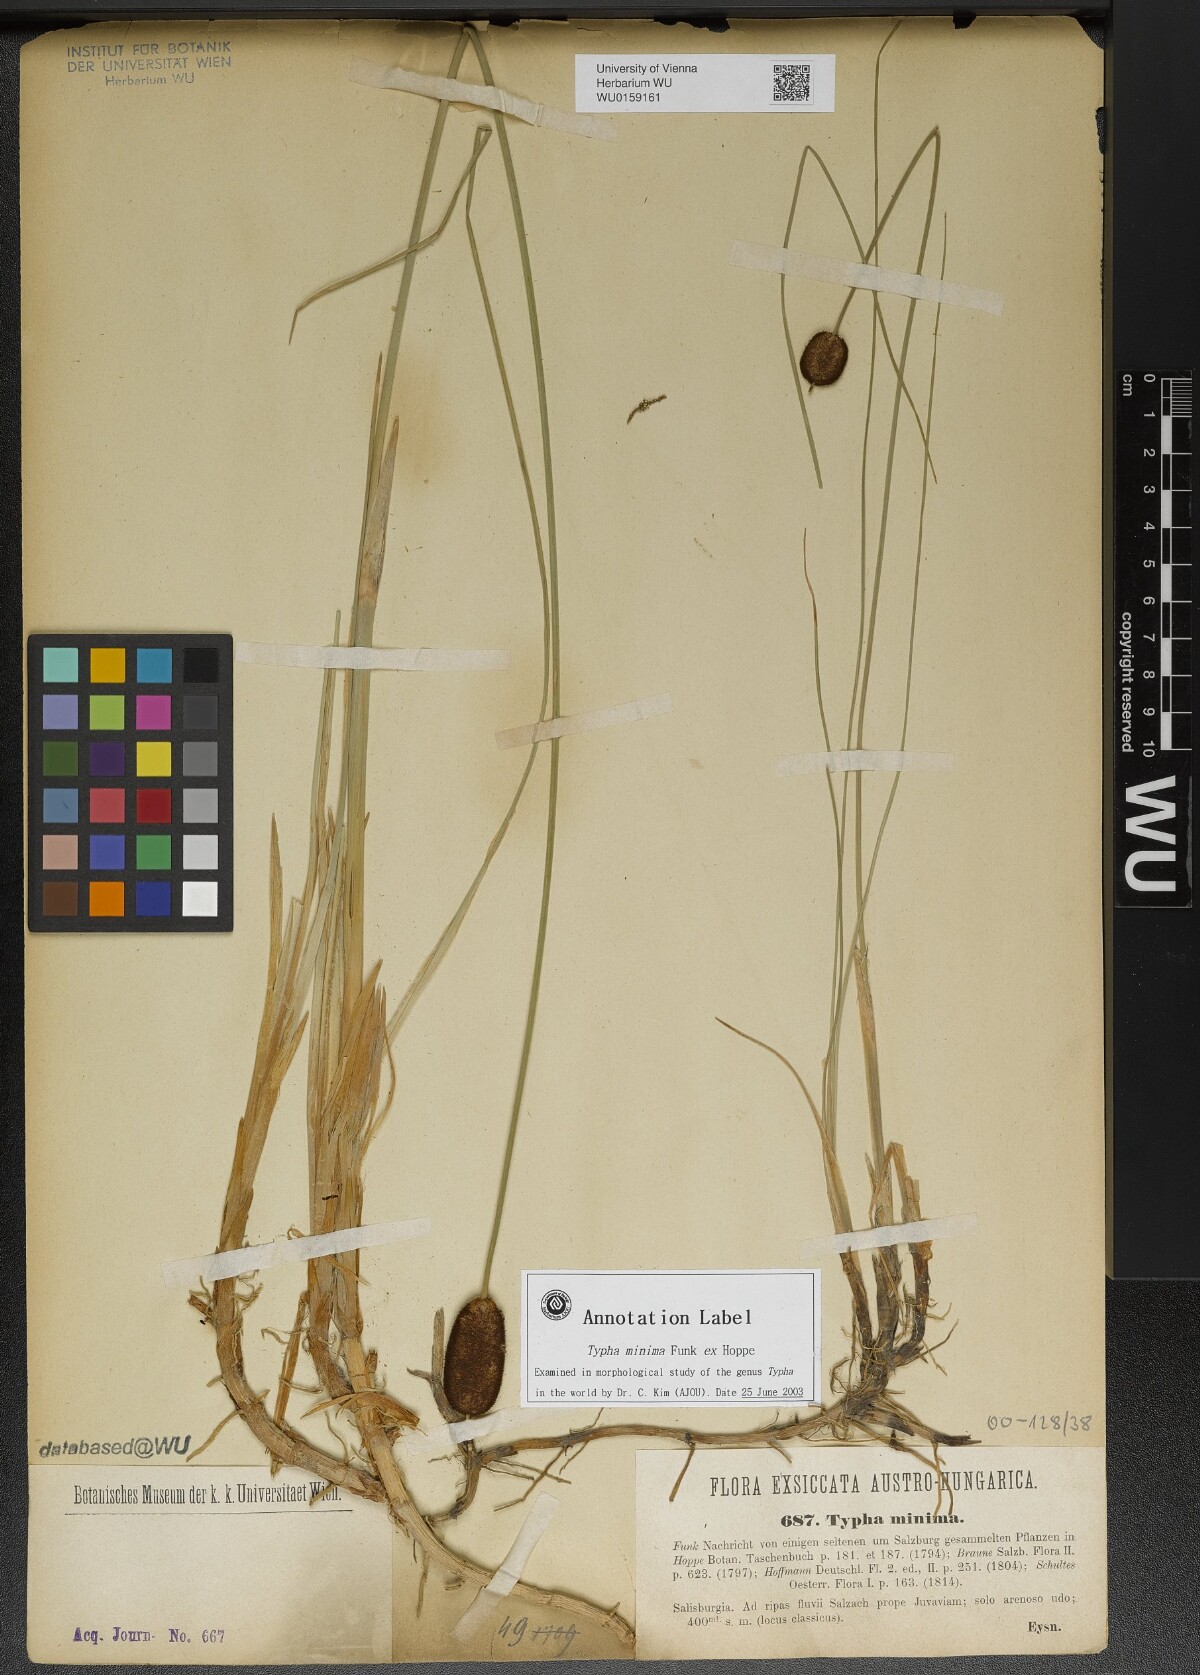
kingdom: Plantae
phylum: Tracheophyta
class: Liliopsida
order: Poales
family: Typhaceae
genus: Typha
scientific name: Typha minima
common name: Dwarf bulrush
